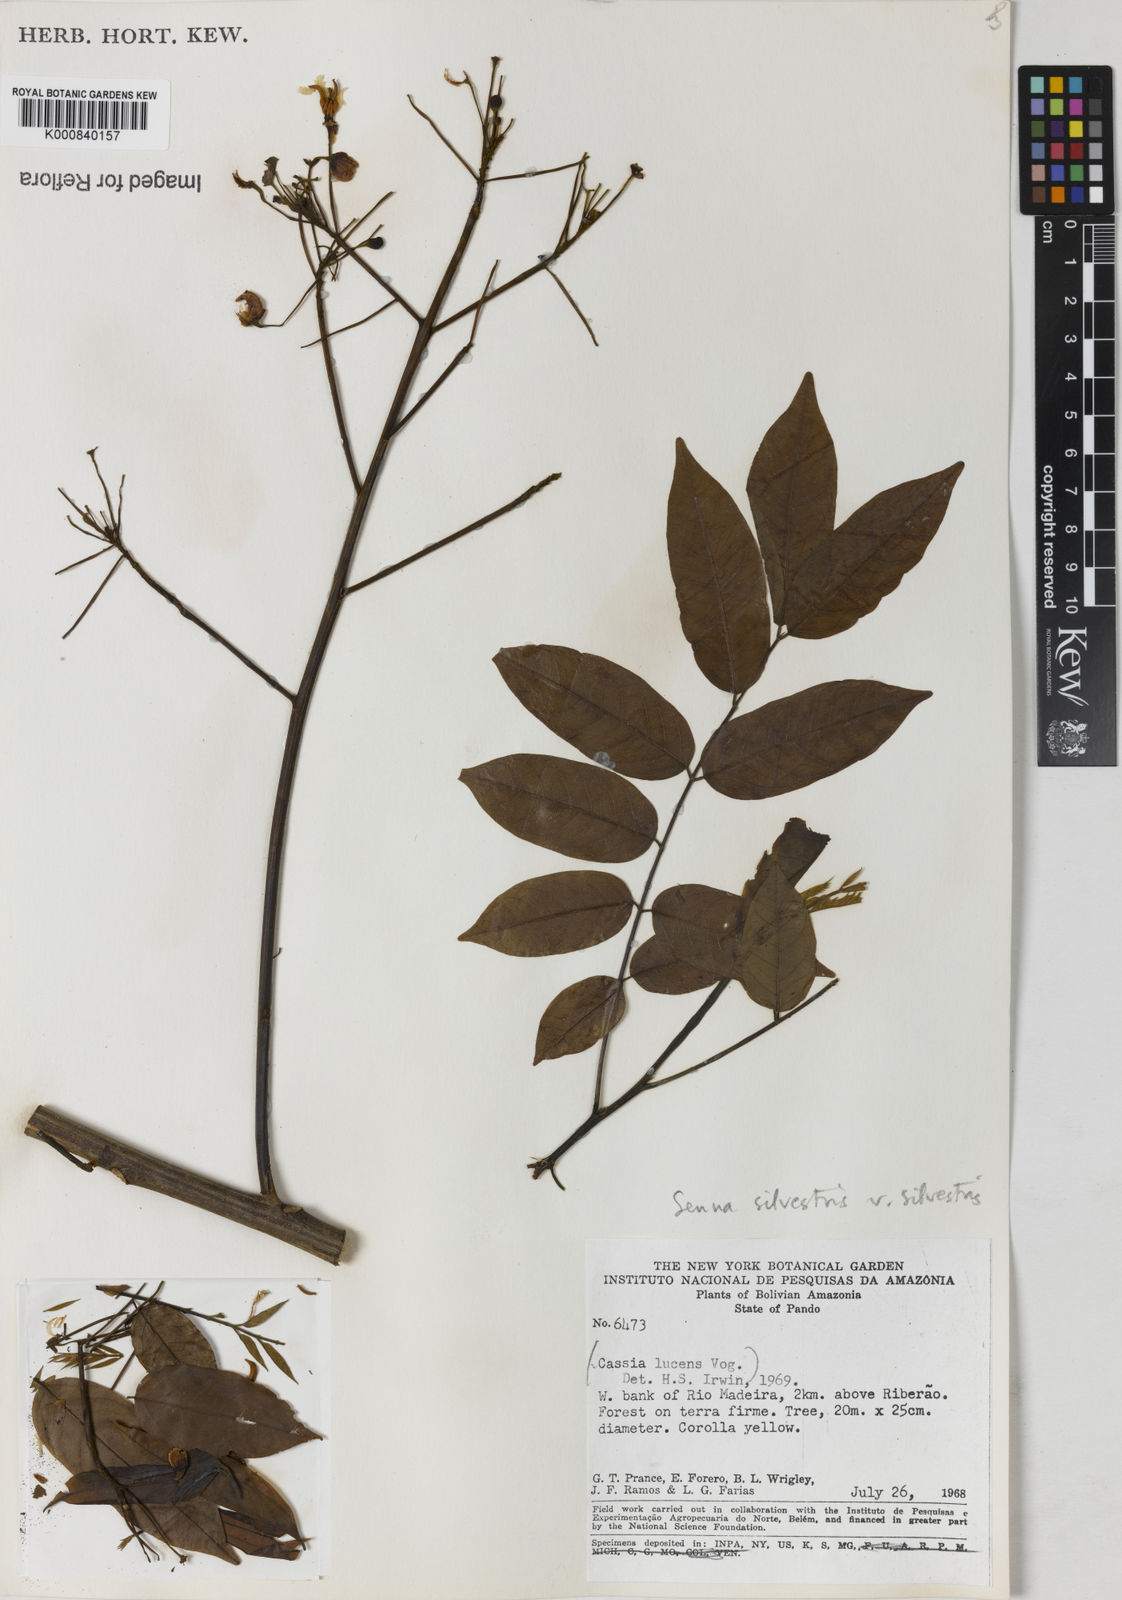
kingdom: Plantae
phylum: Tracheophyta
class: Magnoliopsida
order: Fabales
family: Fabaceae
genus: Senna
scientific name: Senna silvestris
